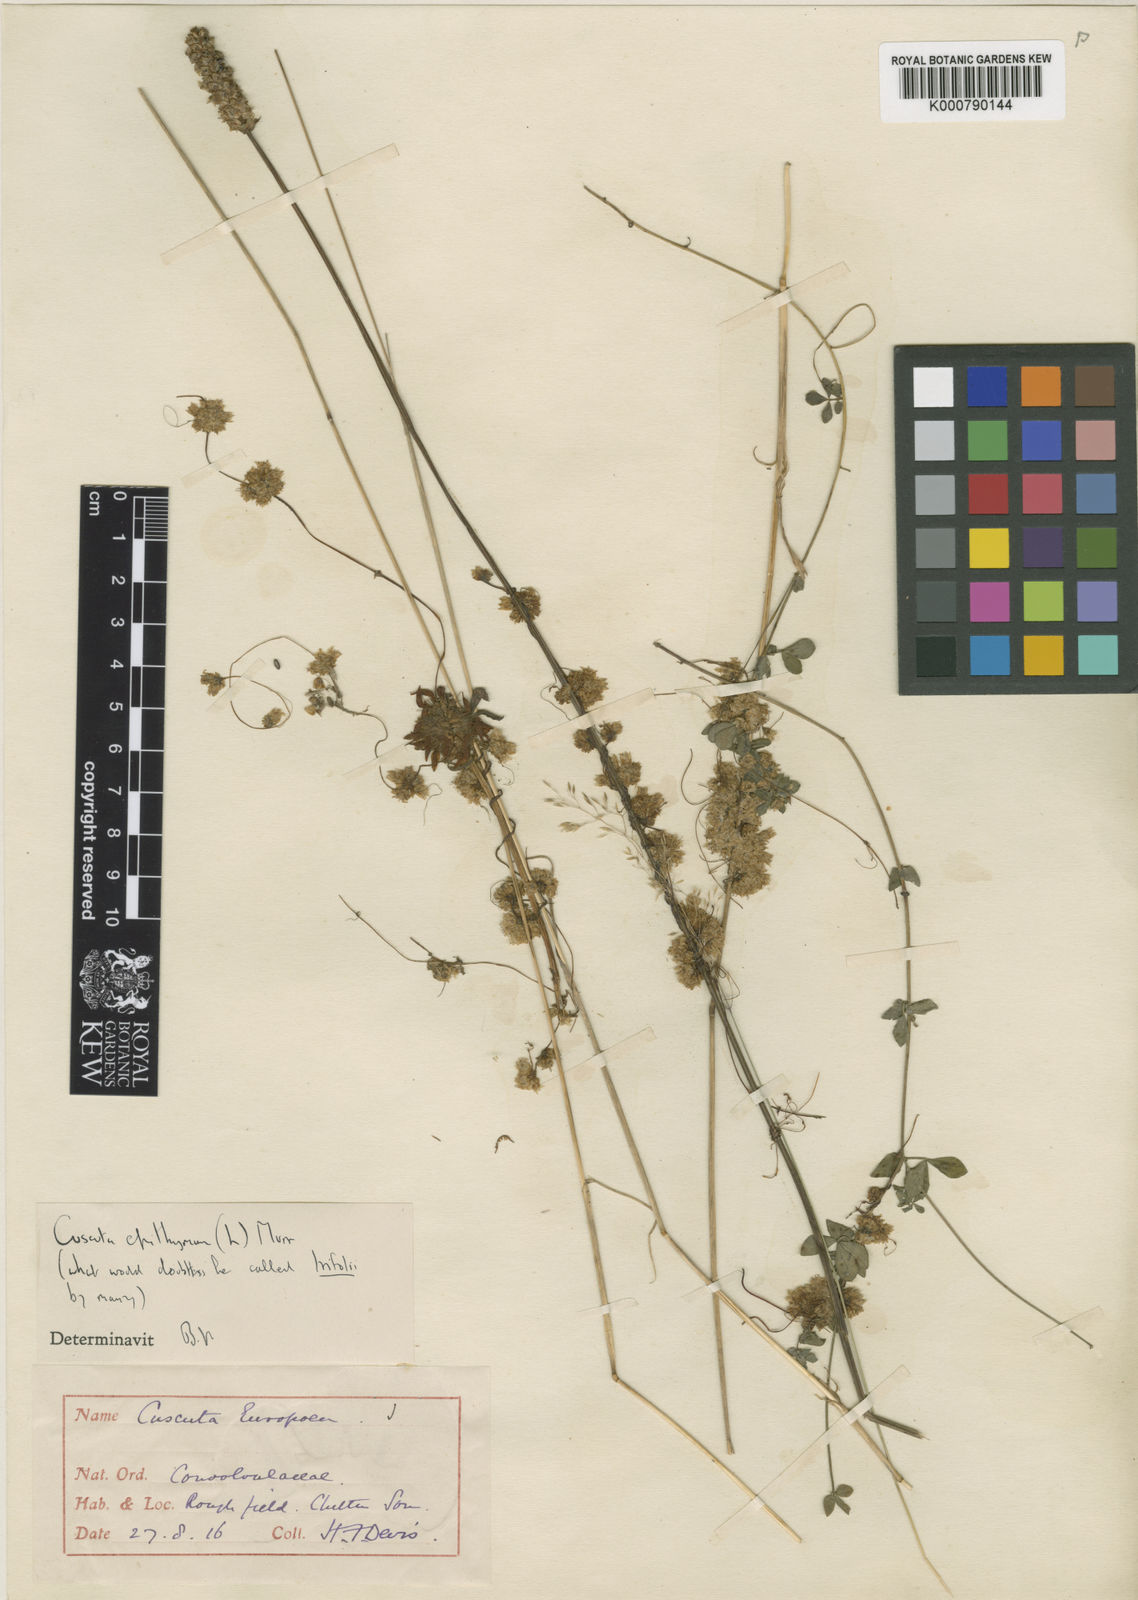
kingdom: Plantae
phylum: Tracheophyta
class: Magnoliopsida
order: Solanales
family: Convolvulaceae
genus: Cuscuta
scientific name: Cuscuta epithymum
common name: Clover dodder
